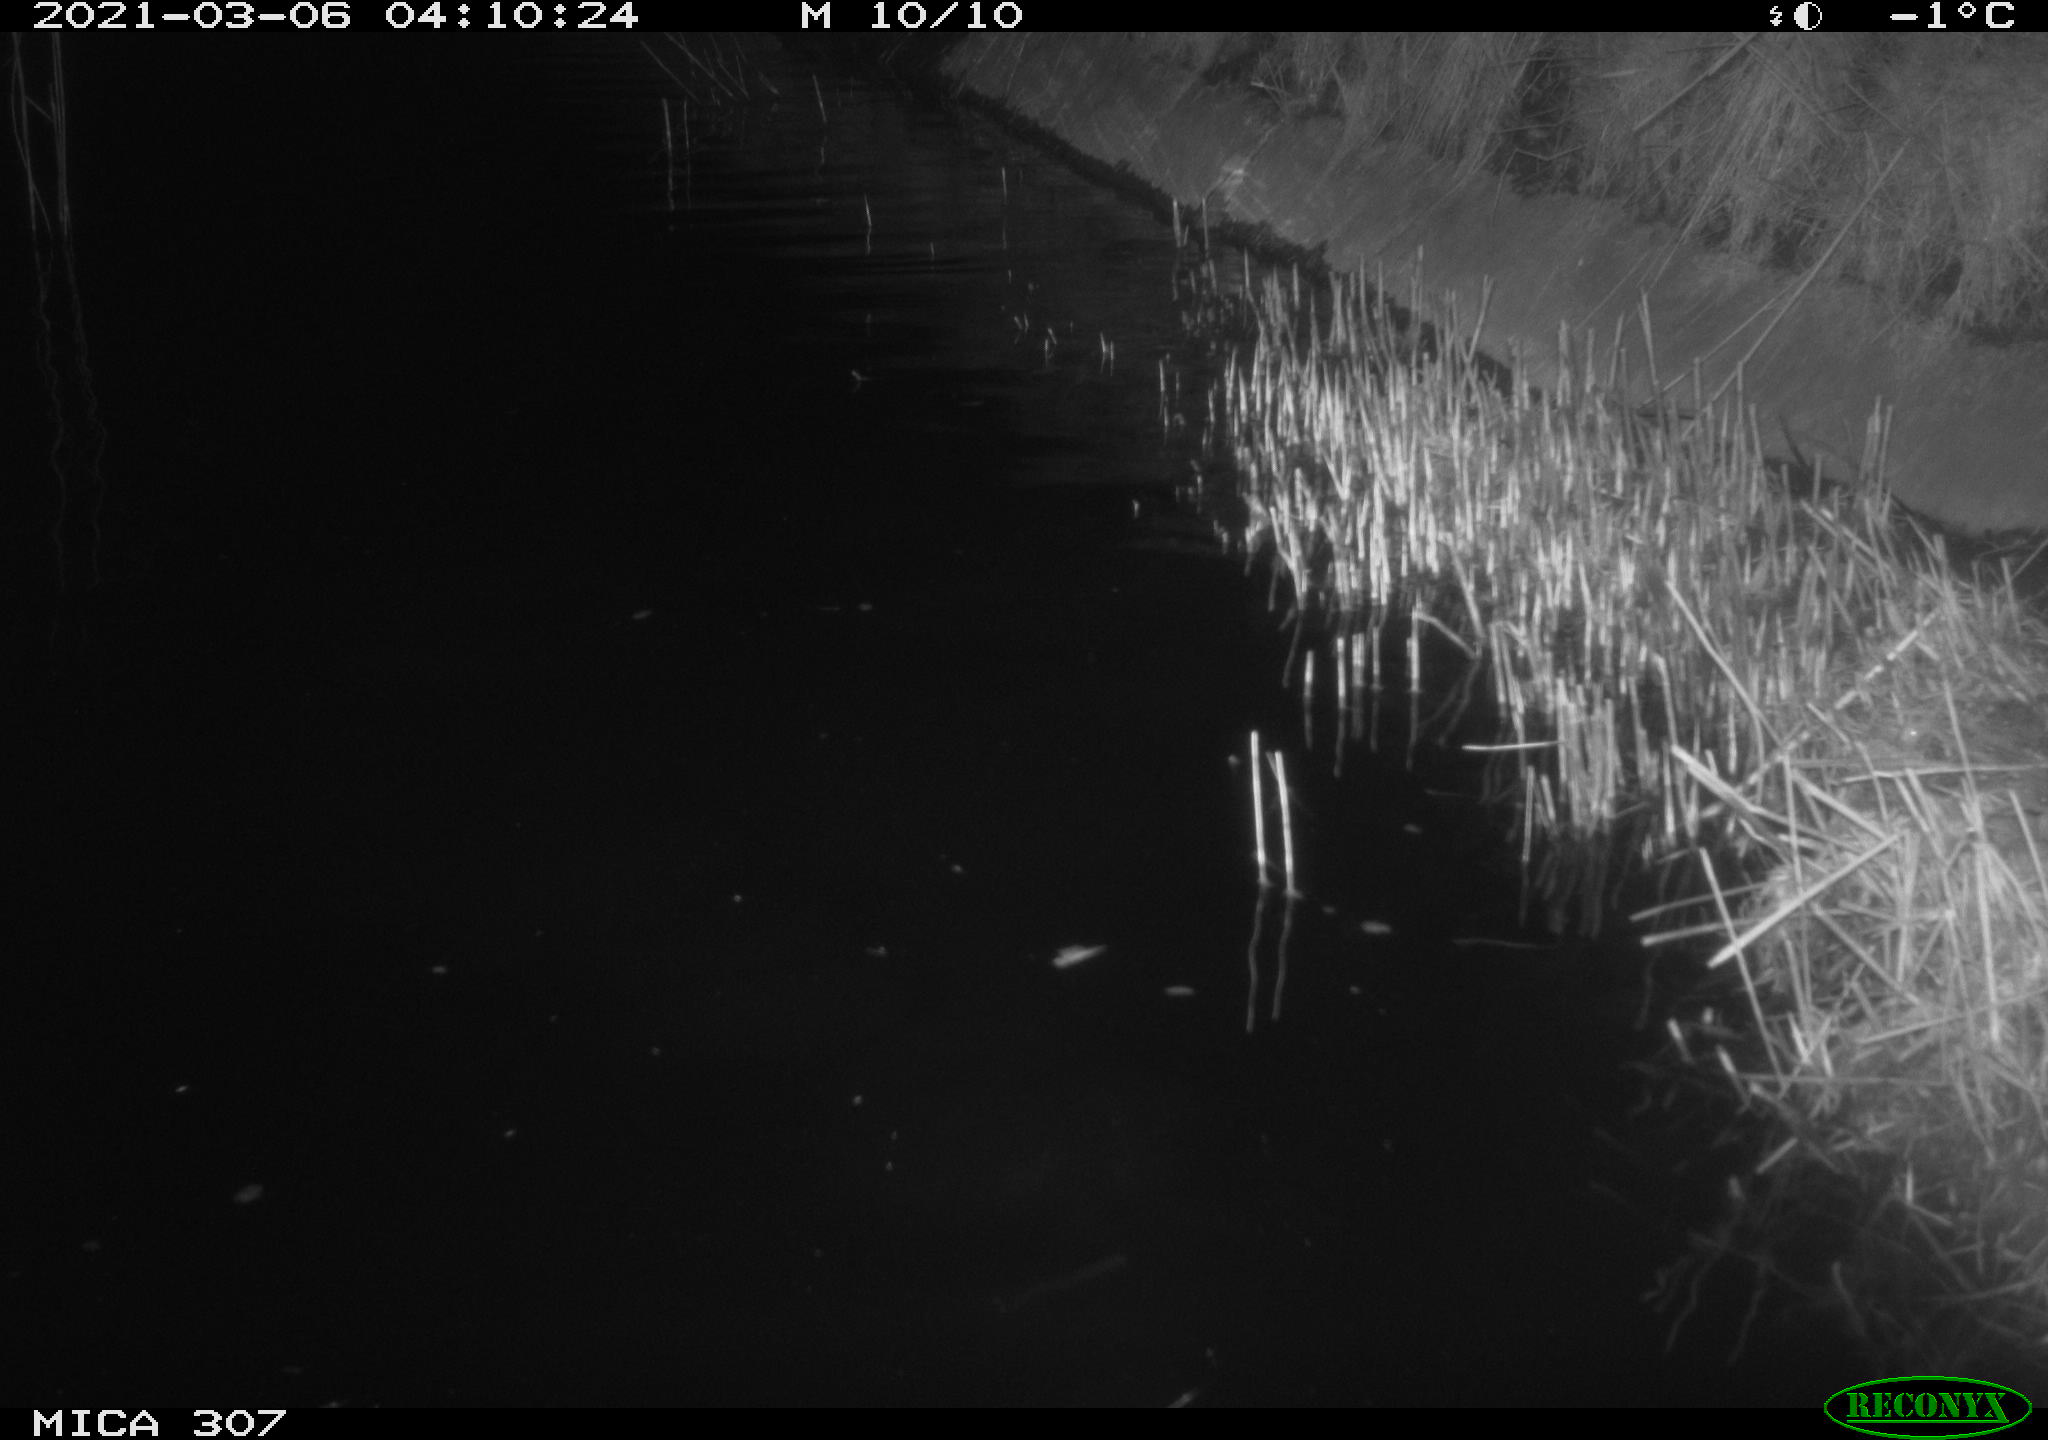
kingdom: Animalia
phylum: Chordata
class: Aves
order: Anseriformes
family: Anatidae
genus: Anas
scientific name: Anas platyrhynchos
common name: Mallard
